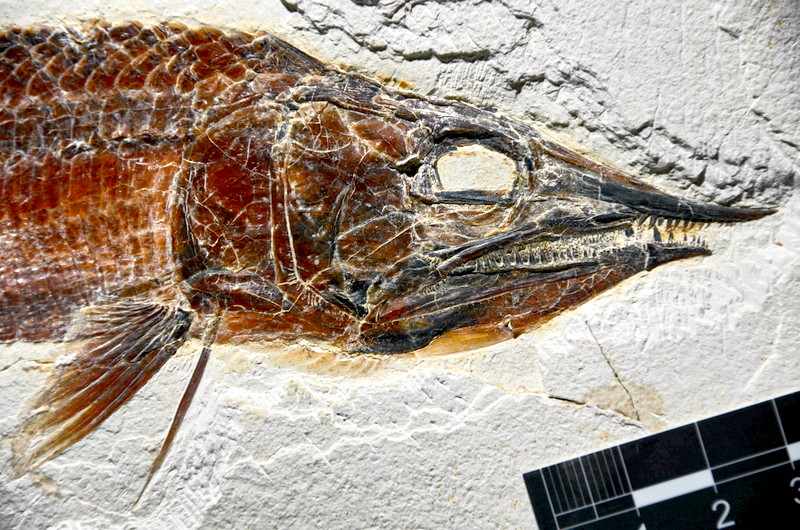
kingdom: Animalia
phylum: Chordata
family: Aspidorhynchidae
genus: Aspidorhynchus
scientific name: Aspidorhynchus sanzenbacheri
